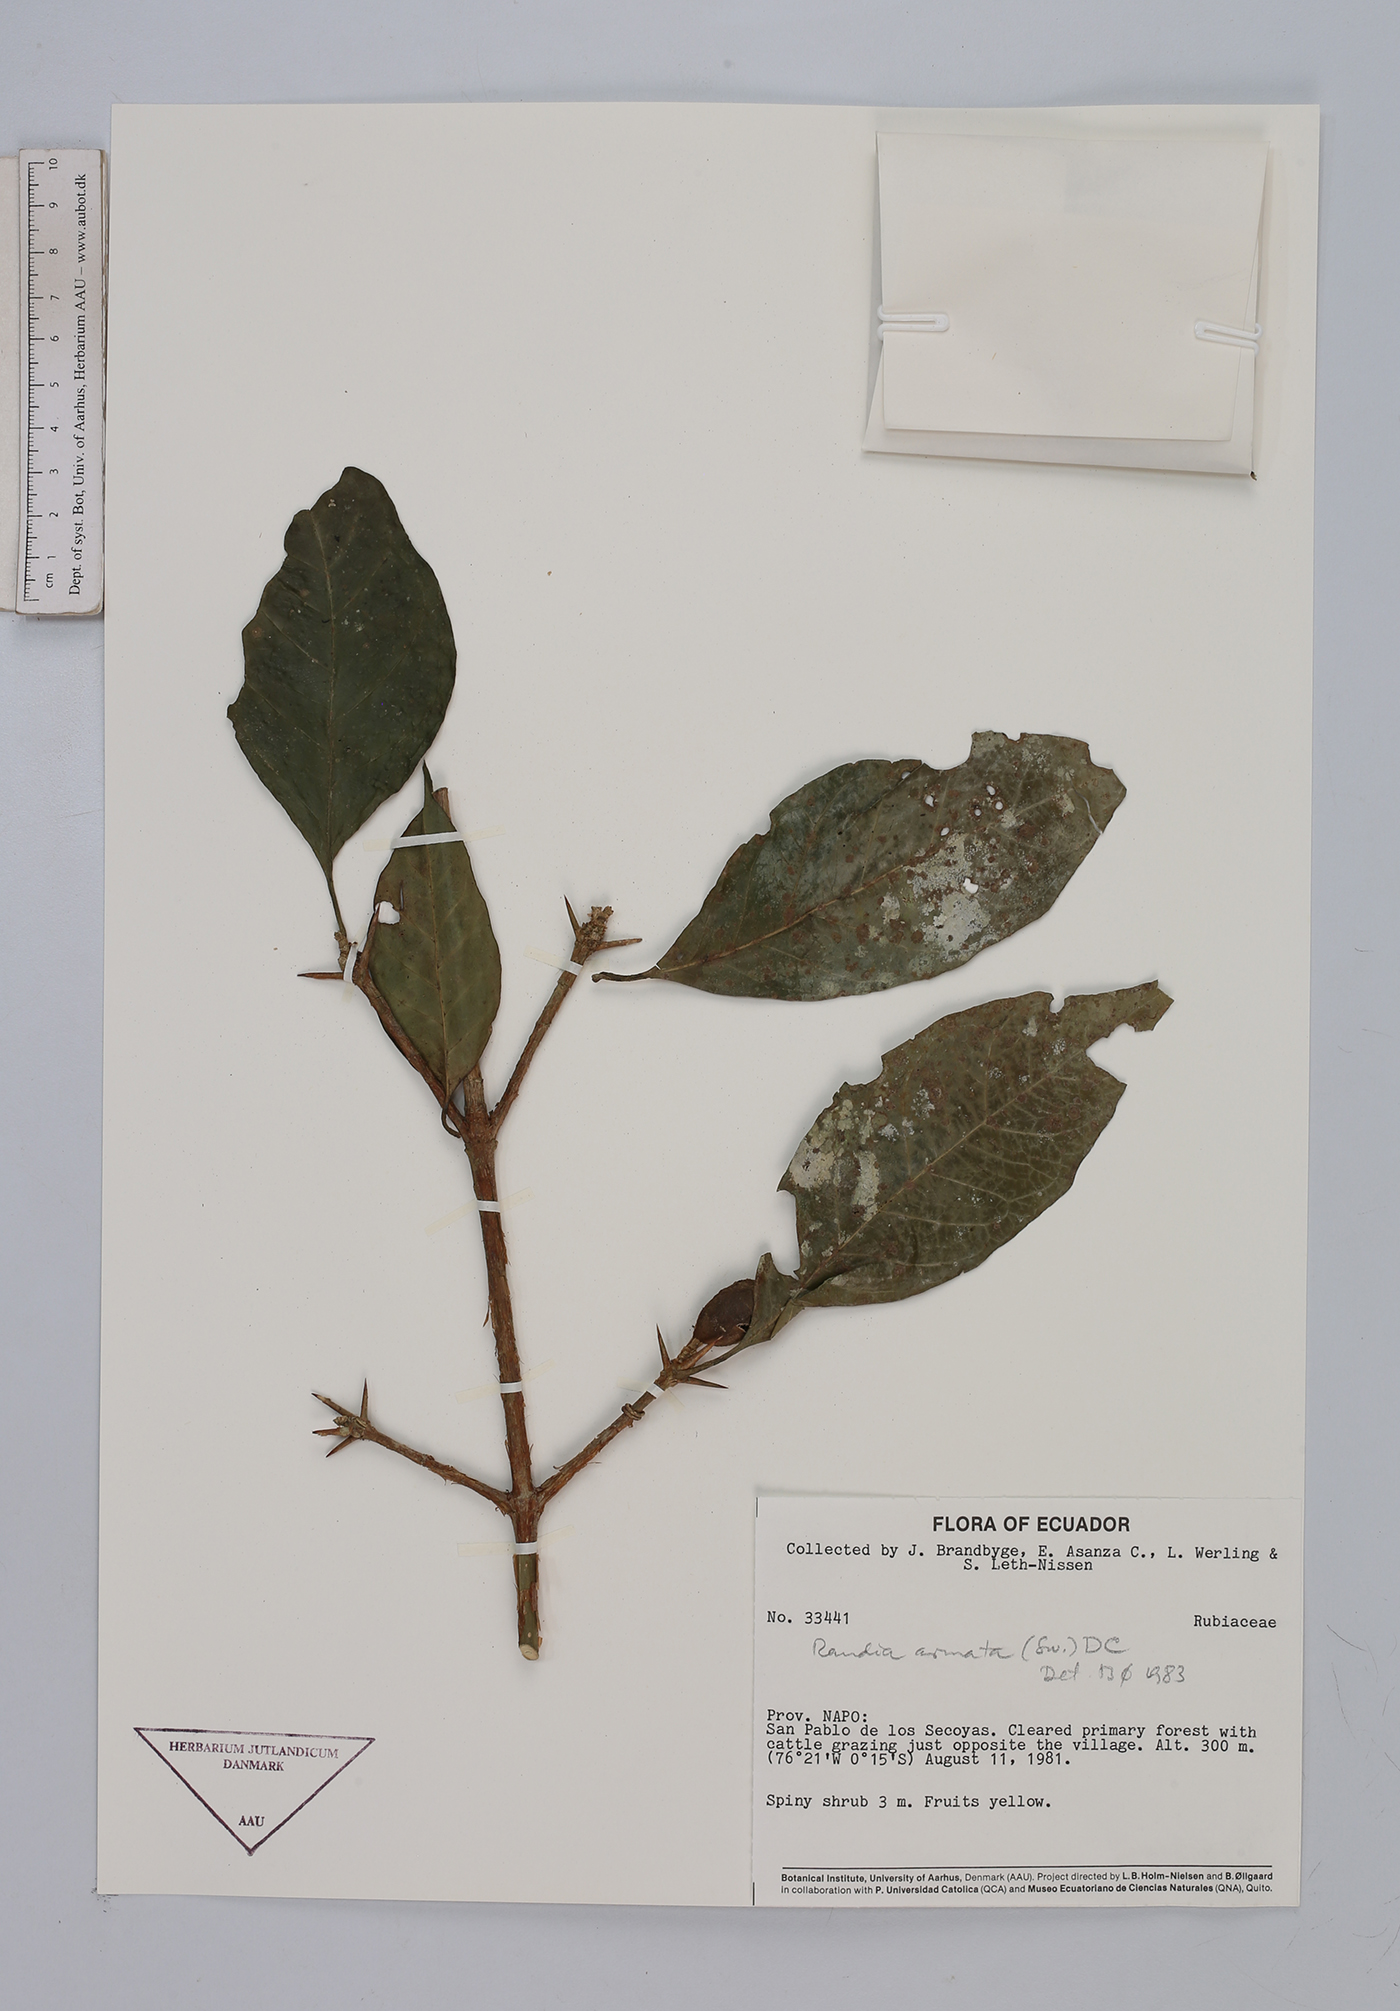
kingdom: Plantae
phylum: Tracheophyta
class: Magnoliopsida
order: Gentianales
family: Rubiaceae
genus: Randia
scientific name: Randia armata
